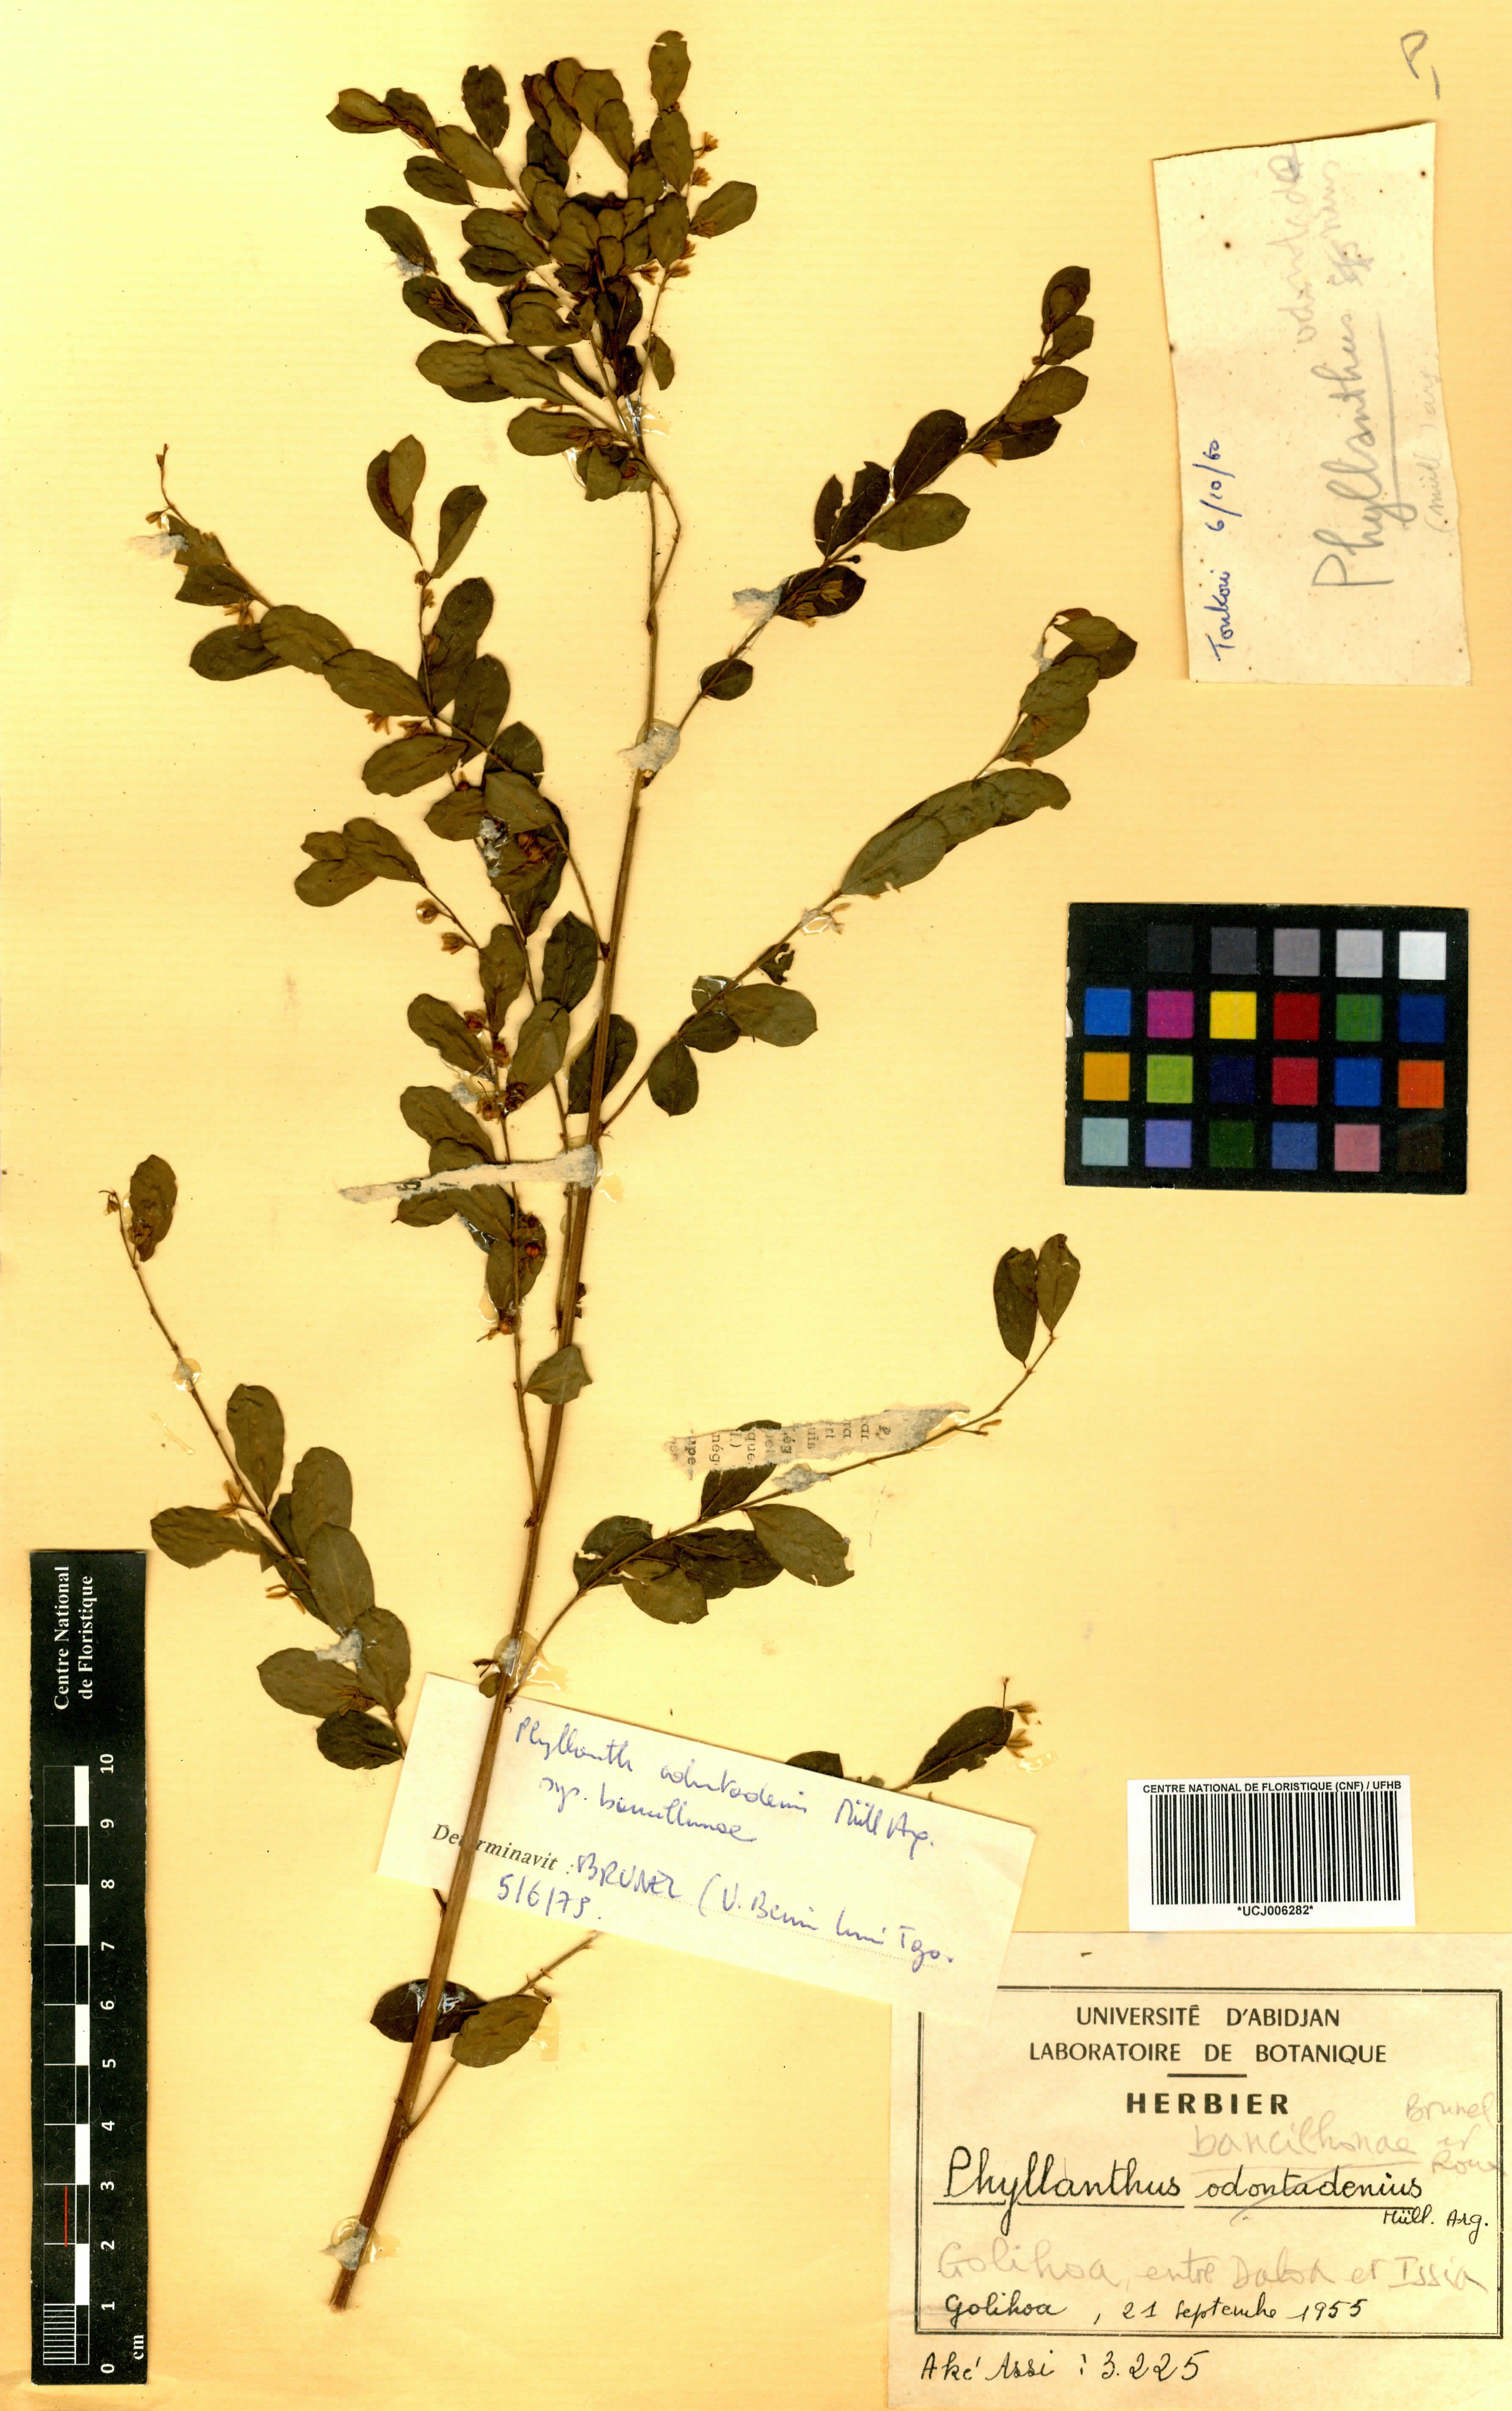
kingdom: Plantae
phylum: Tracheophyta
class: Magnoliopsida
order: Malpighiales
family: Phyllanthaceae
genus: Phyllanthus
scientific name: Phyllanthus bancilhonae
